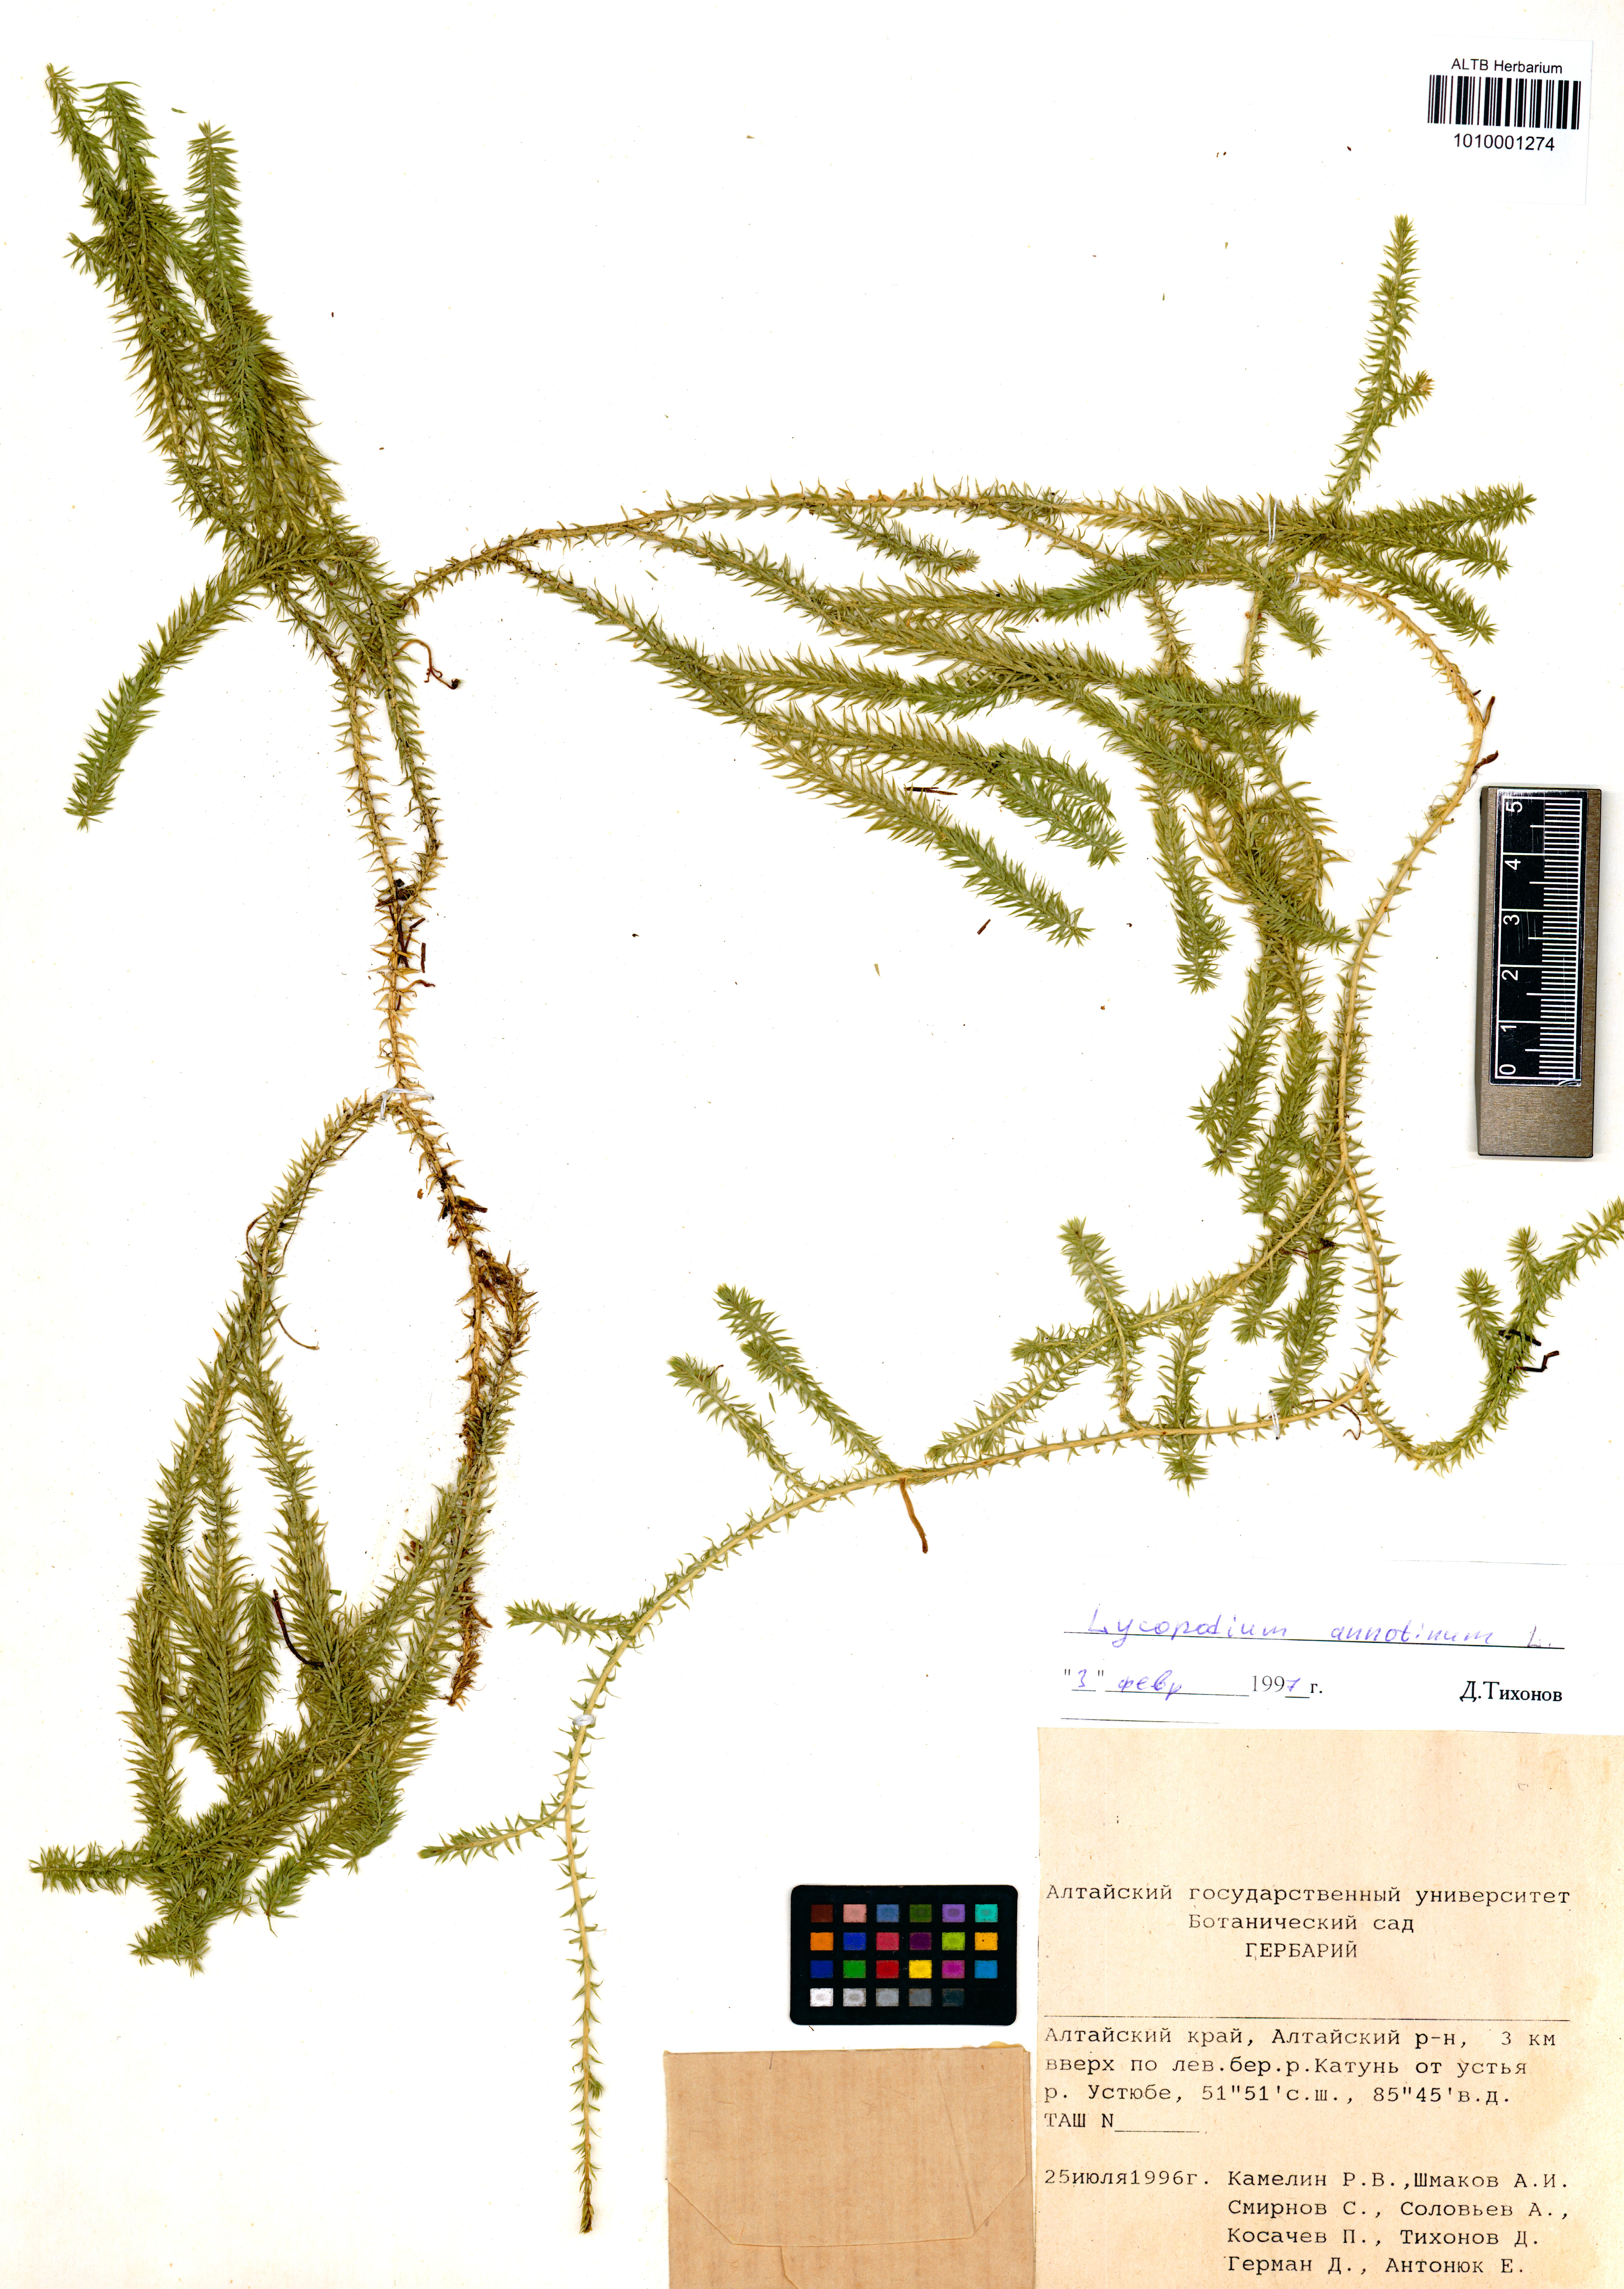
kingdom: Plantae
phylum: Tracheophyta
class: Lycopodiopsida
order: Lycopodiales
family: Lycopodiaceae
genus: Spinulum
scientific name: Spinulum annotinum
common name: Interrupted club-moss
